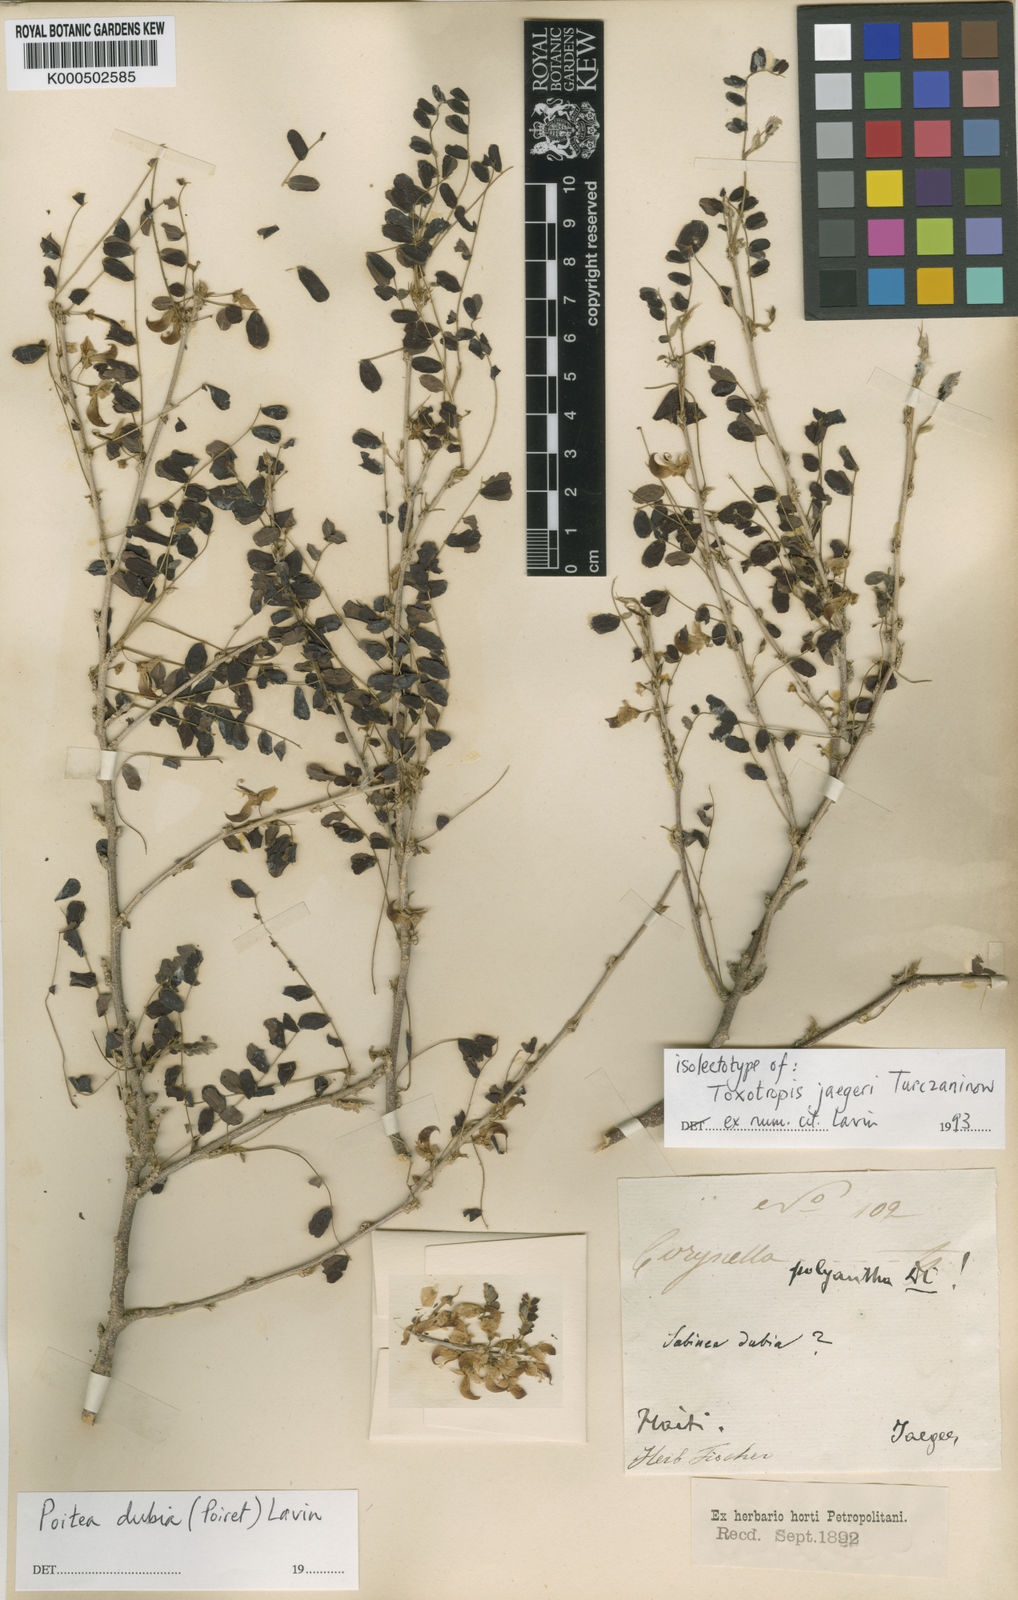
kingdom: Plantae
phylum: Tracheophyta
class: Magnoliopsida
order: Fabales
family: Fabaceae
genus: Poitea
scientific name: Poitea dubia
